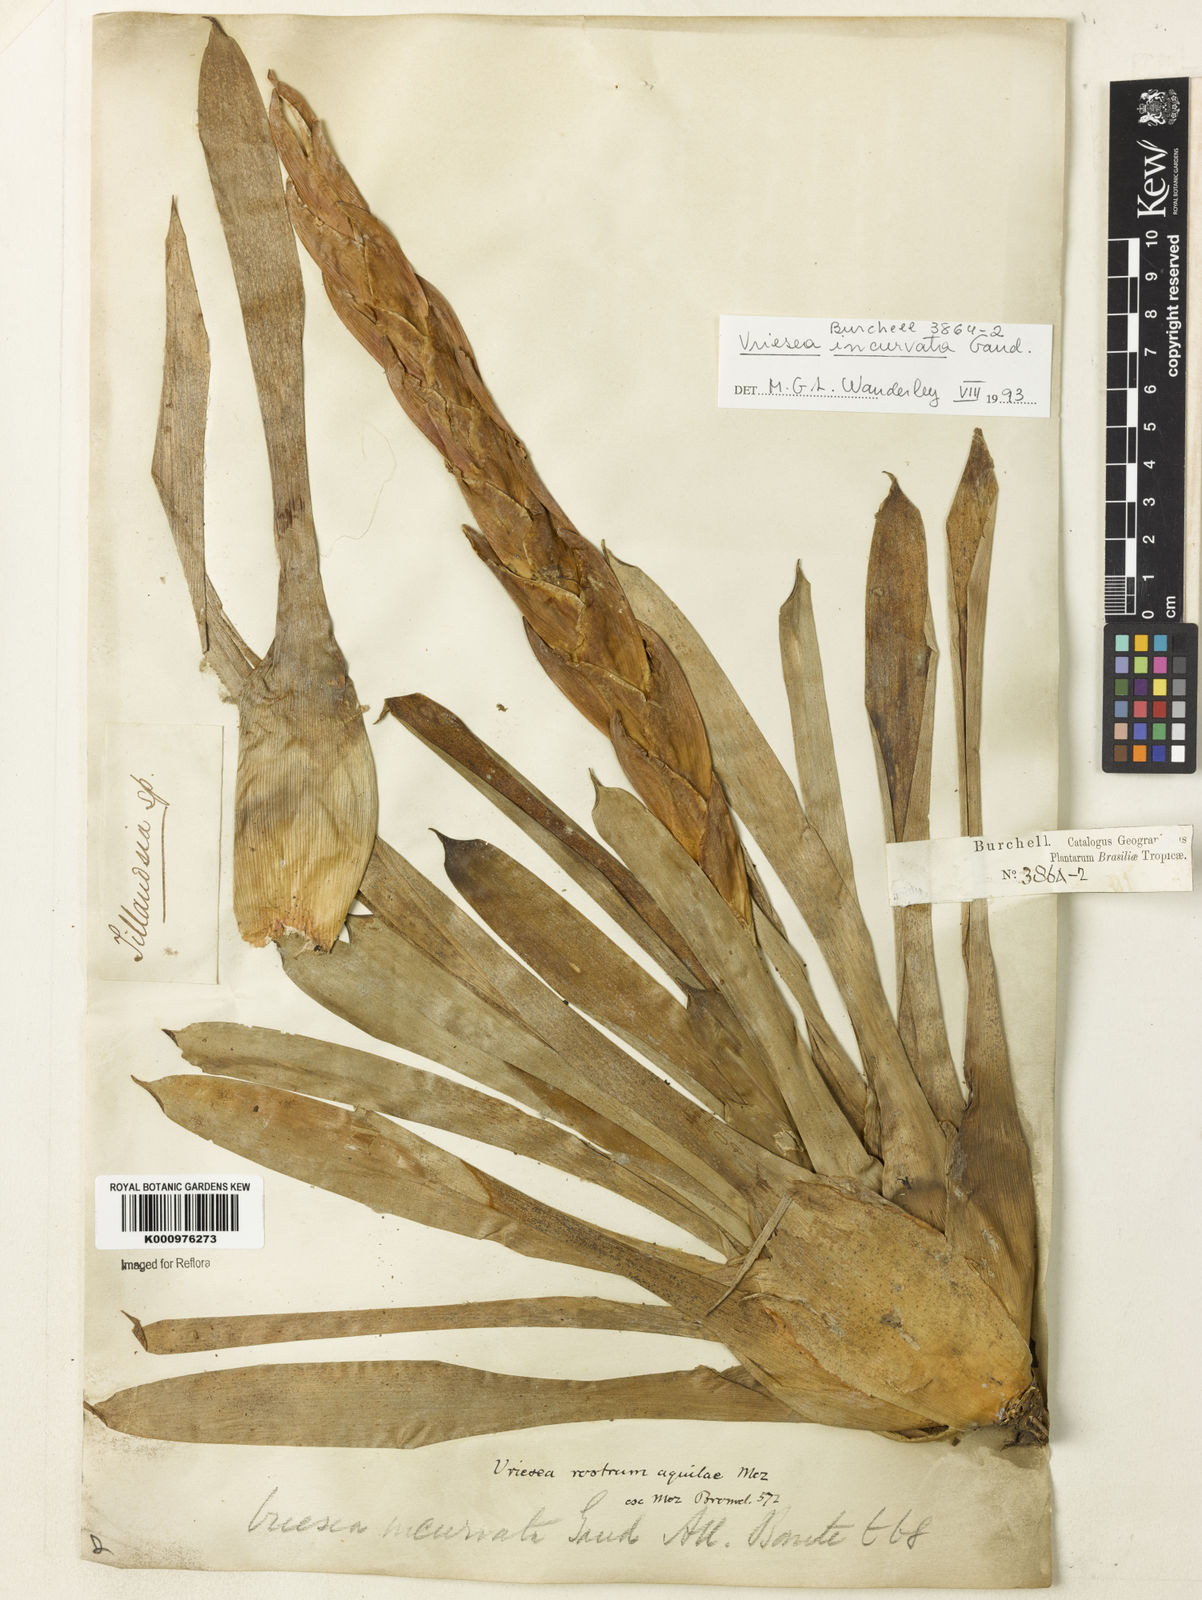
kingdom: Plantae
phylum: Tracheophyta
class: Liliopsida
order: Poales
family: Bromeliaceae
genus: Vriesea
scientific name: Vriesea incurvata
